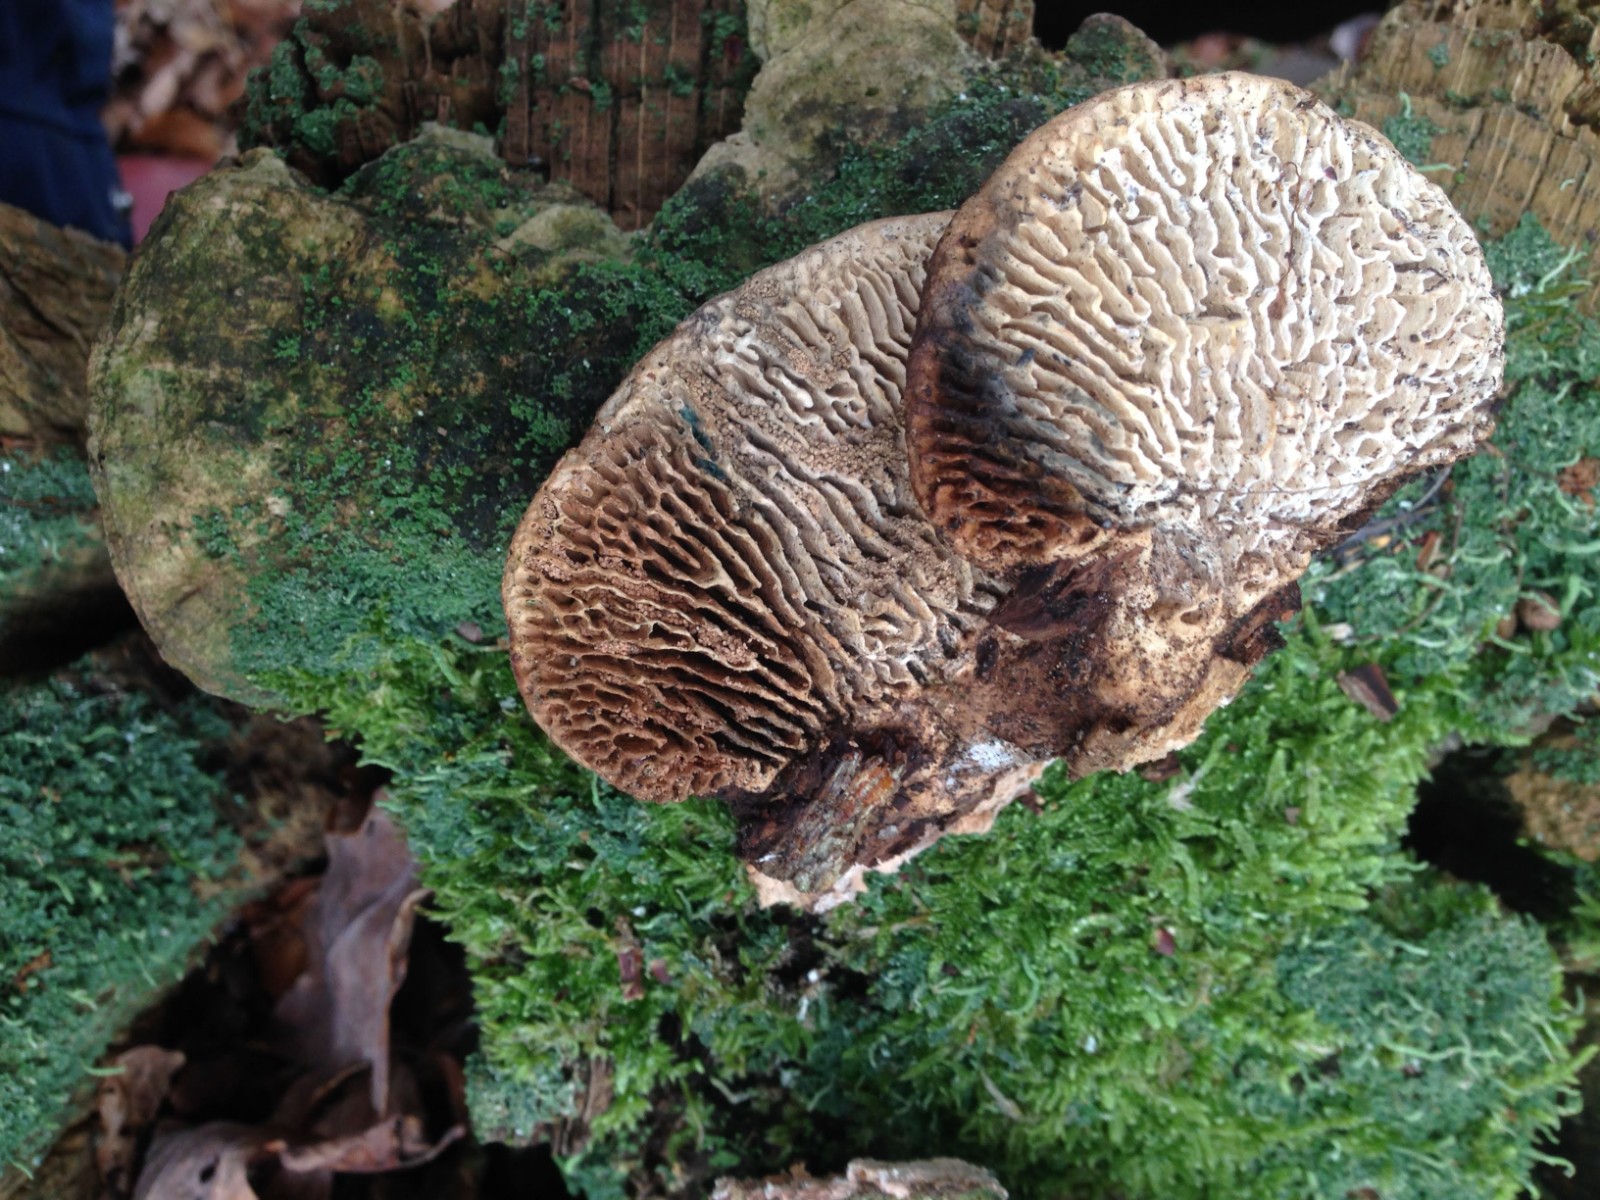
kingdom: Fungi
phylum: Basidiomycota
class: Agaricomycetes
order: Polyporales
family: Fomitopsidaceae
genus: Daedalea
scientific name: Daedalea quercina
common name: ege-labyrintsvamp
